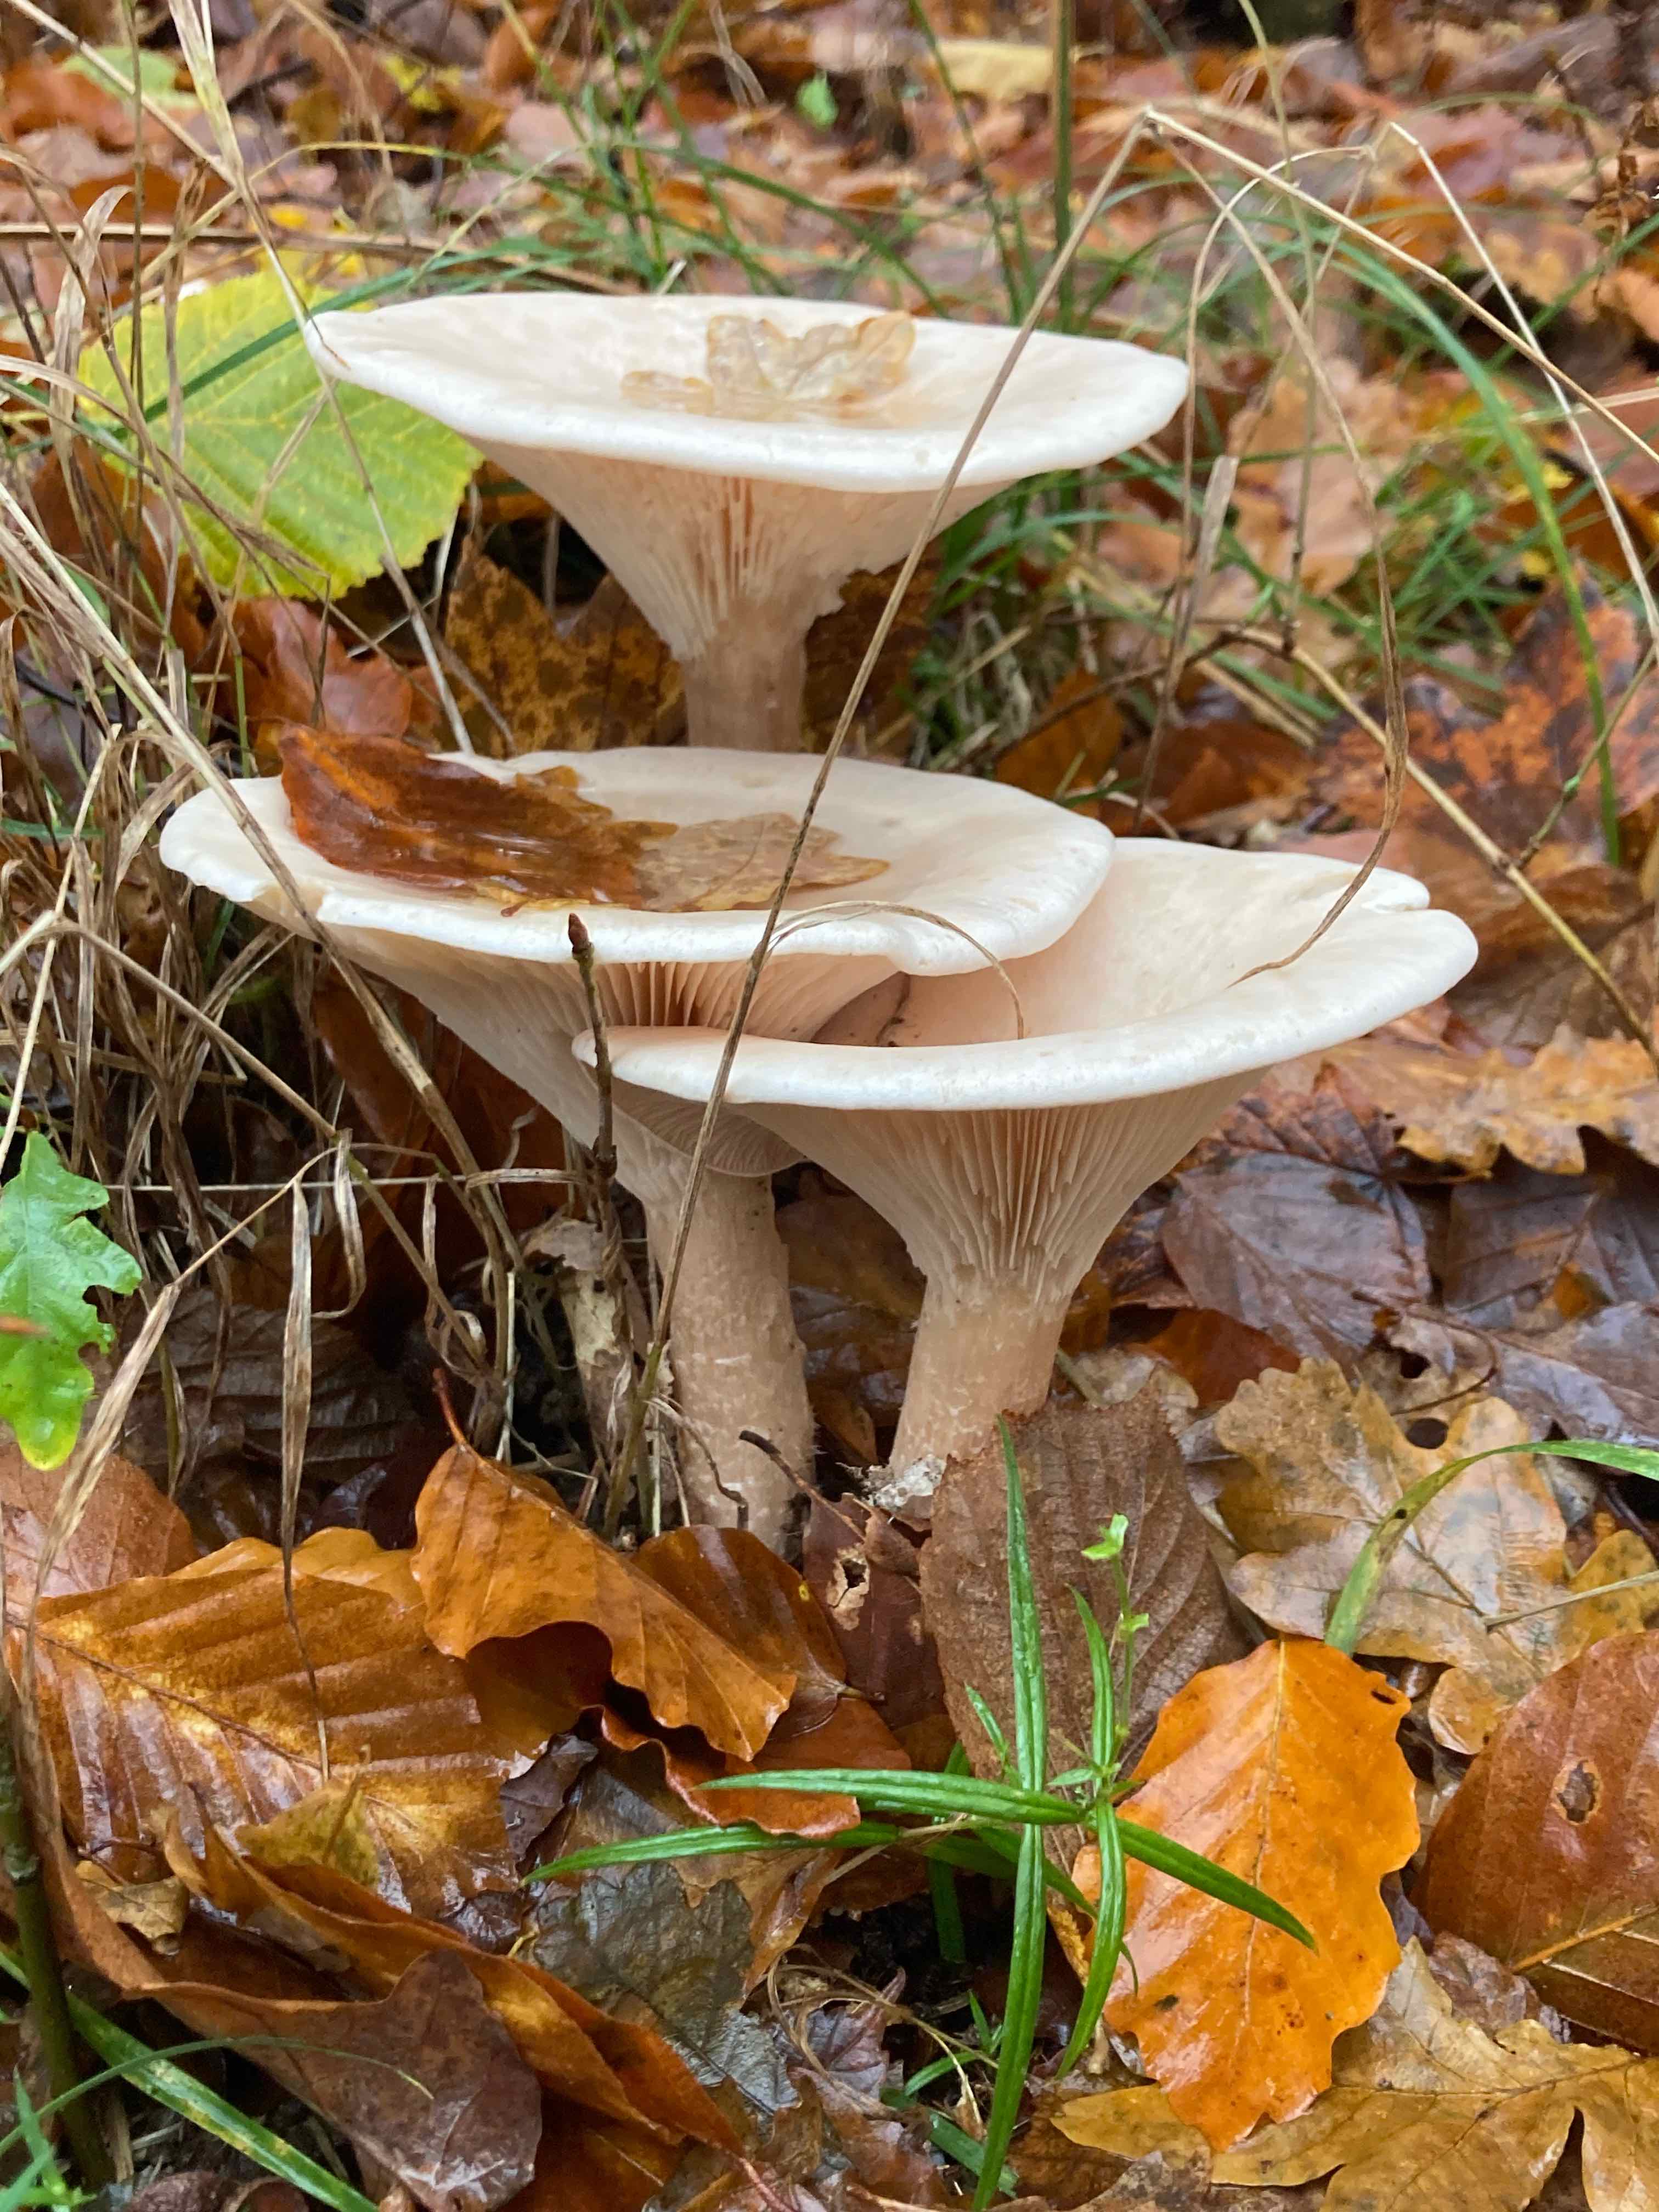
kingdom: Fungi
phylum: Basidiomycota
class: Agaricomycetes
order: Agaricales
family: Tricholomataceae
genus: Infundibulicybe
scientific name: Infundibulicybe geotropa
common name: stor tragthat
